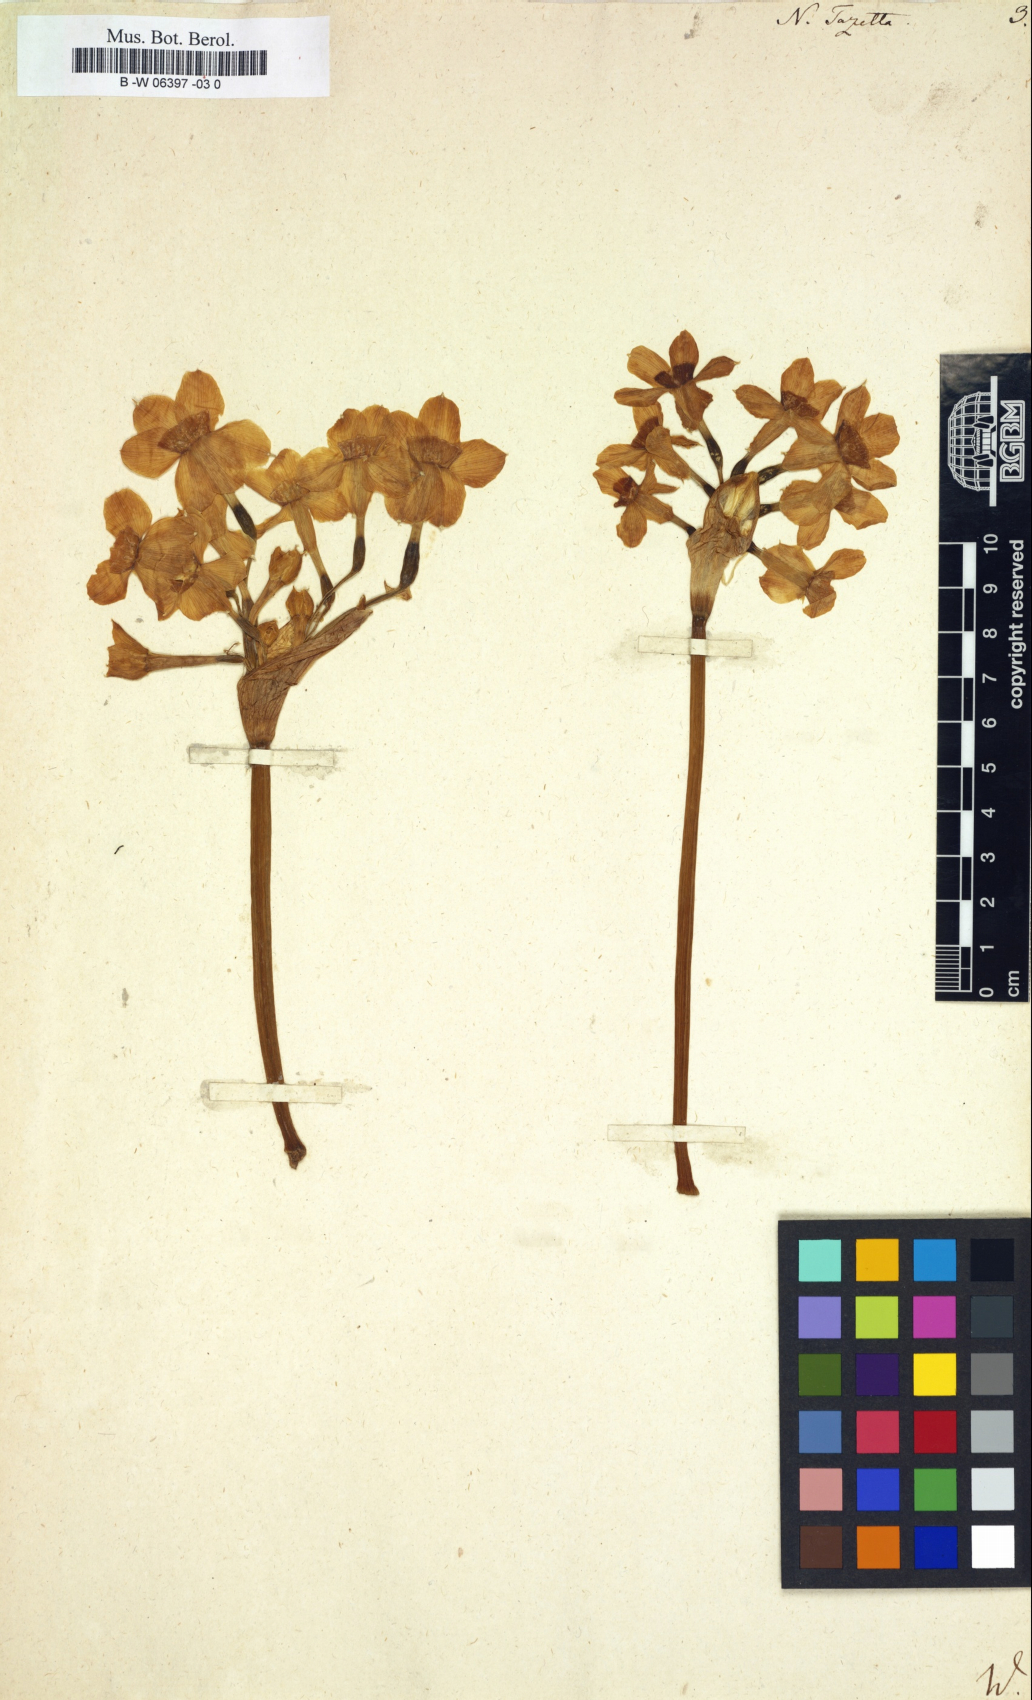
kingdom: Plantae
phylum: Tracheophyta
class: Liliopsida
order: Asparagales
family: Amaryllidaceae
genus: Narcissus
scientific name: Narcissus tazetta
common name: Bunch-flowered daffodil
